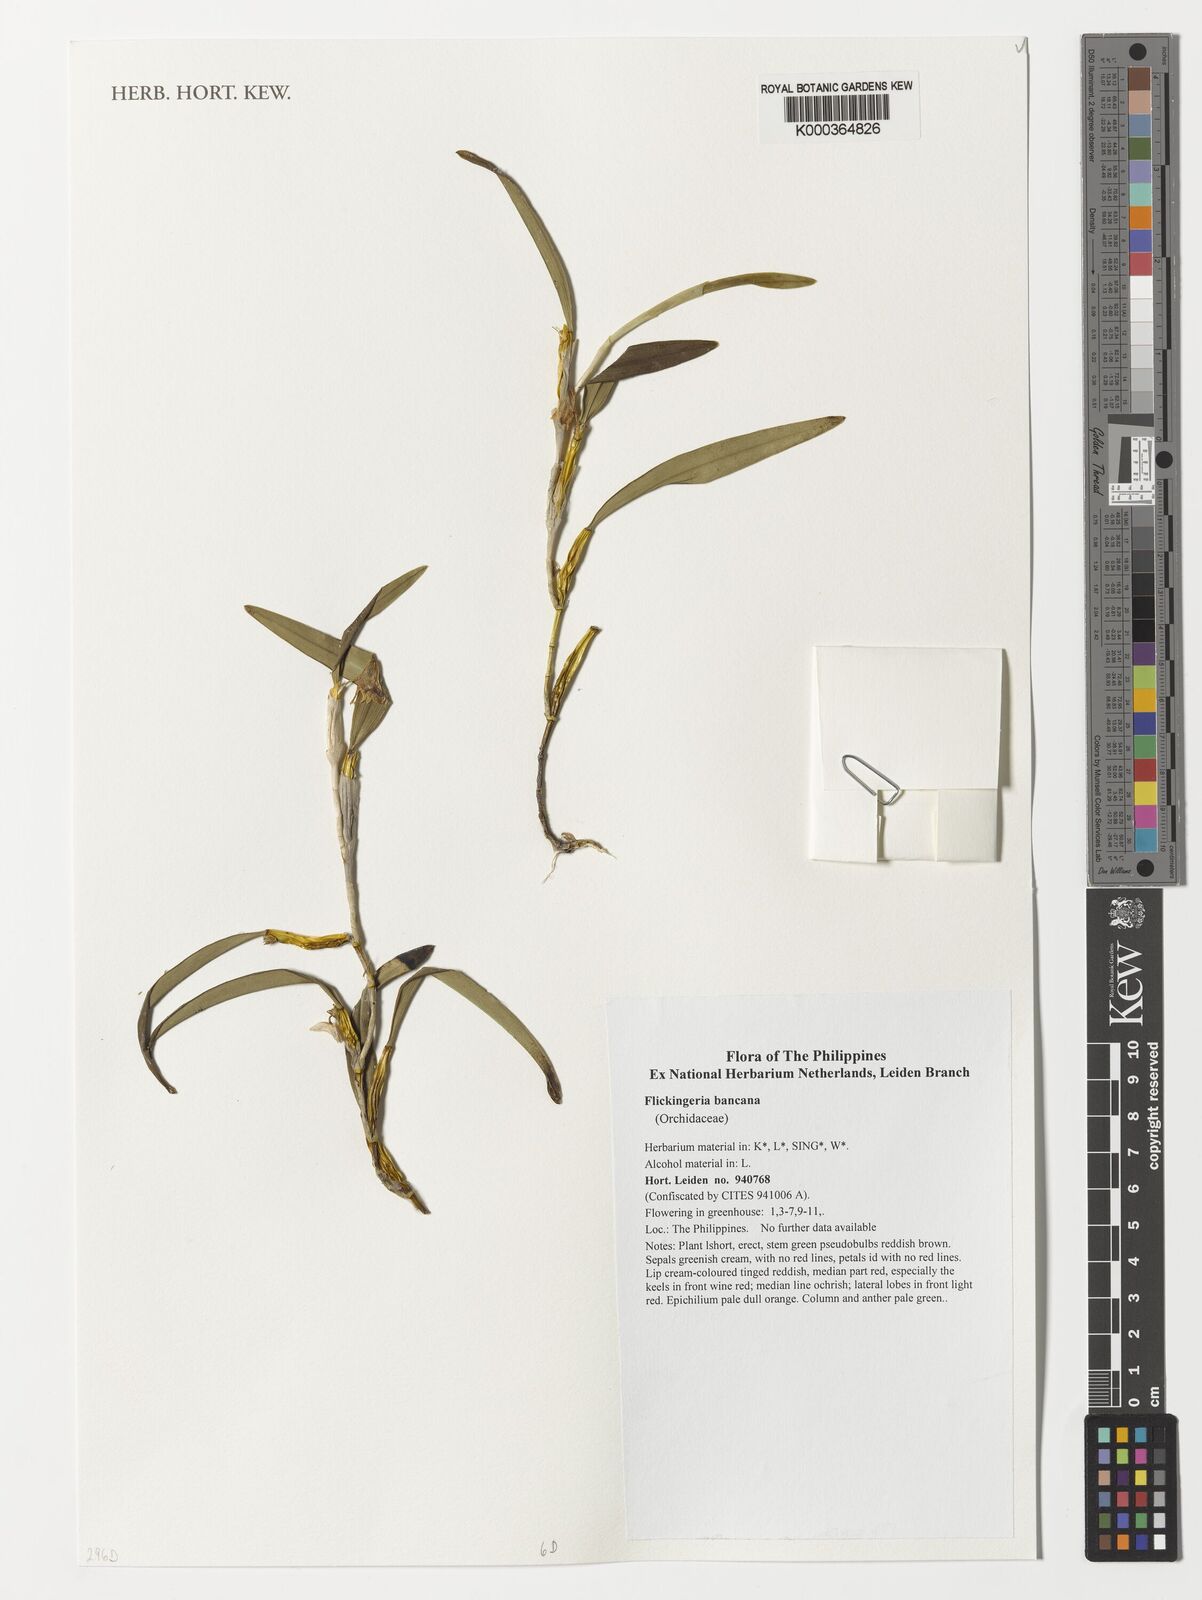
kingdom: Plantae
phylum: Tracheophyta
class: Liliopsida
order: Asparagales
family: Orchidaceae
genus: Dendrobium
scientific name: Dendrobium angustifolium
